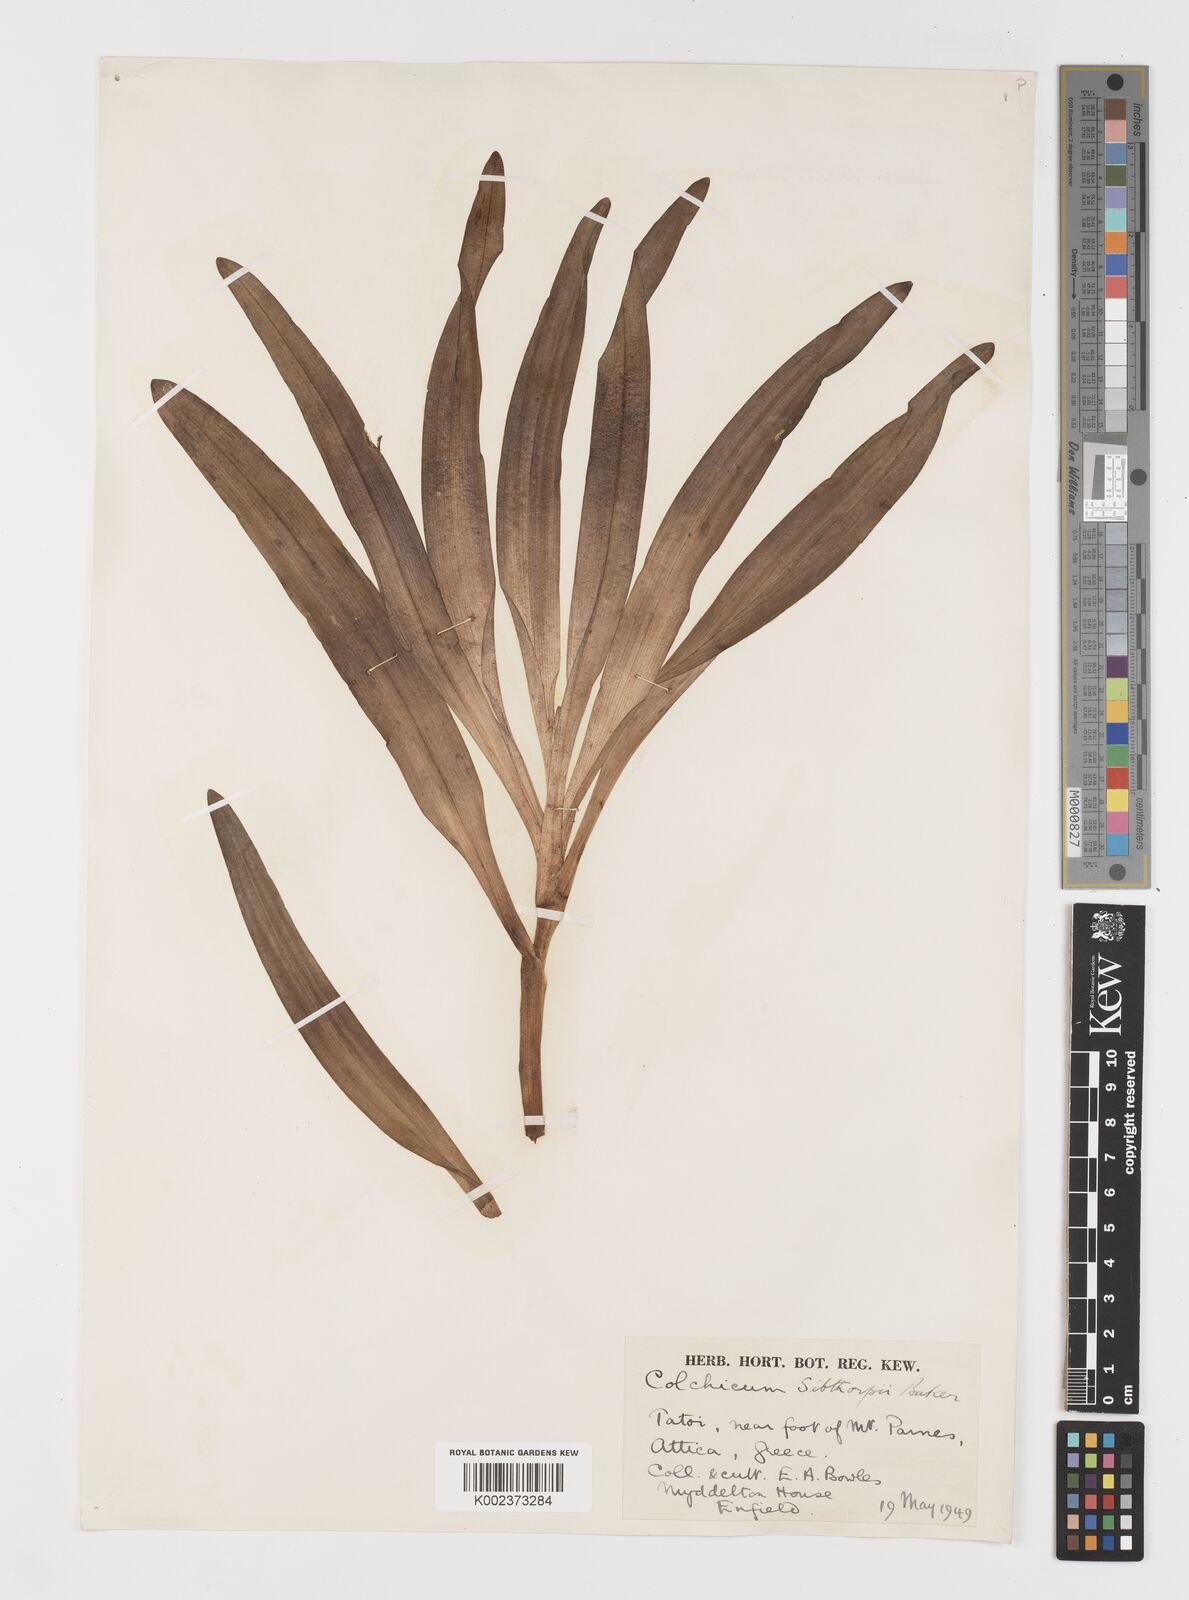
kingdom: Plantae
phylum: Tracheophyta
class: Liliopsida
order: Liliales
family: Colchicaceae
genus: Colchicum
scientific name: Colchicum bivonae
